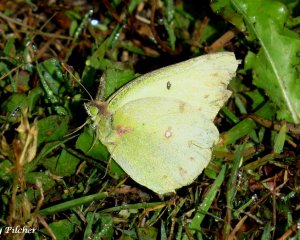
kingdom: Animalia
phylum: Arthropoda
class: Insecta
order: Lepidoptera
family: Pieridae
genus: Colias
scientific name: Colias philodice
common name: Clouded Sulphur
